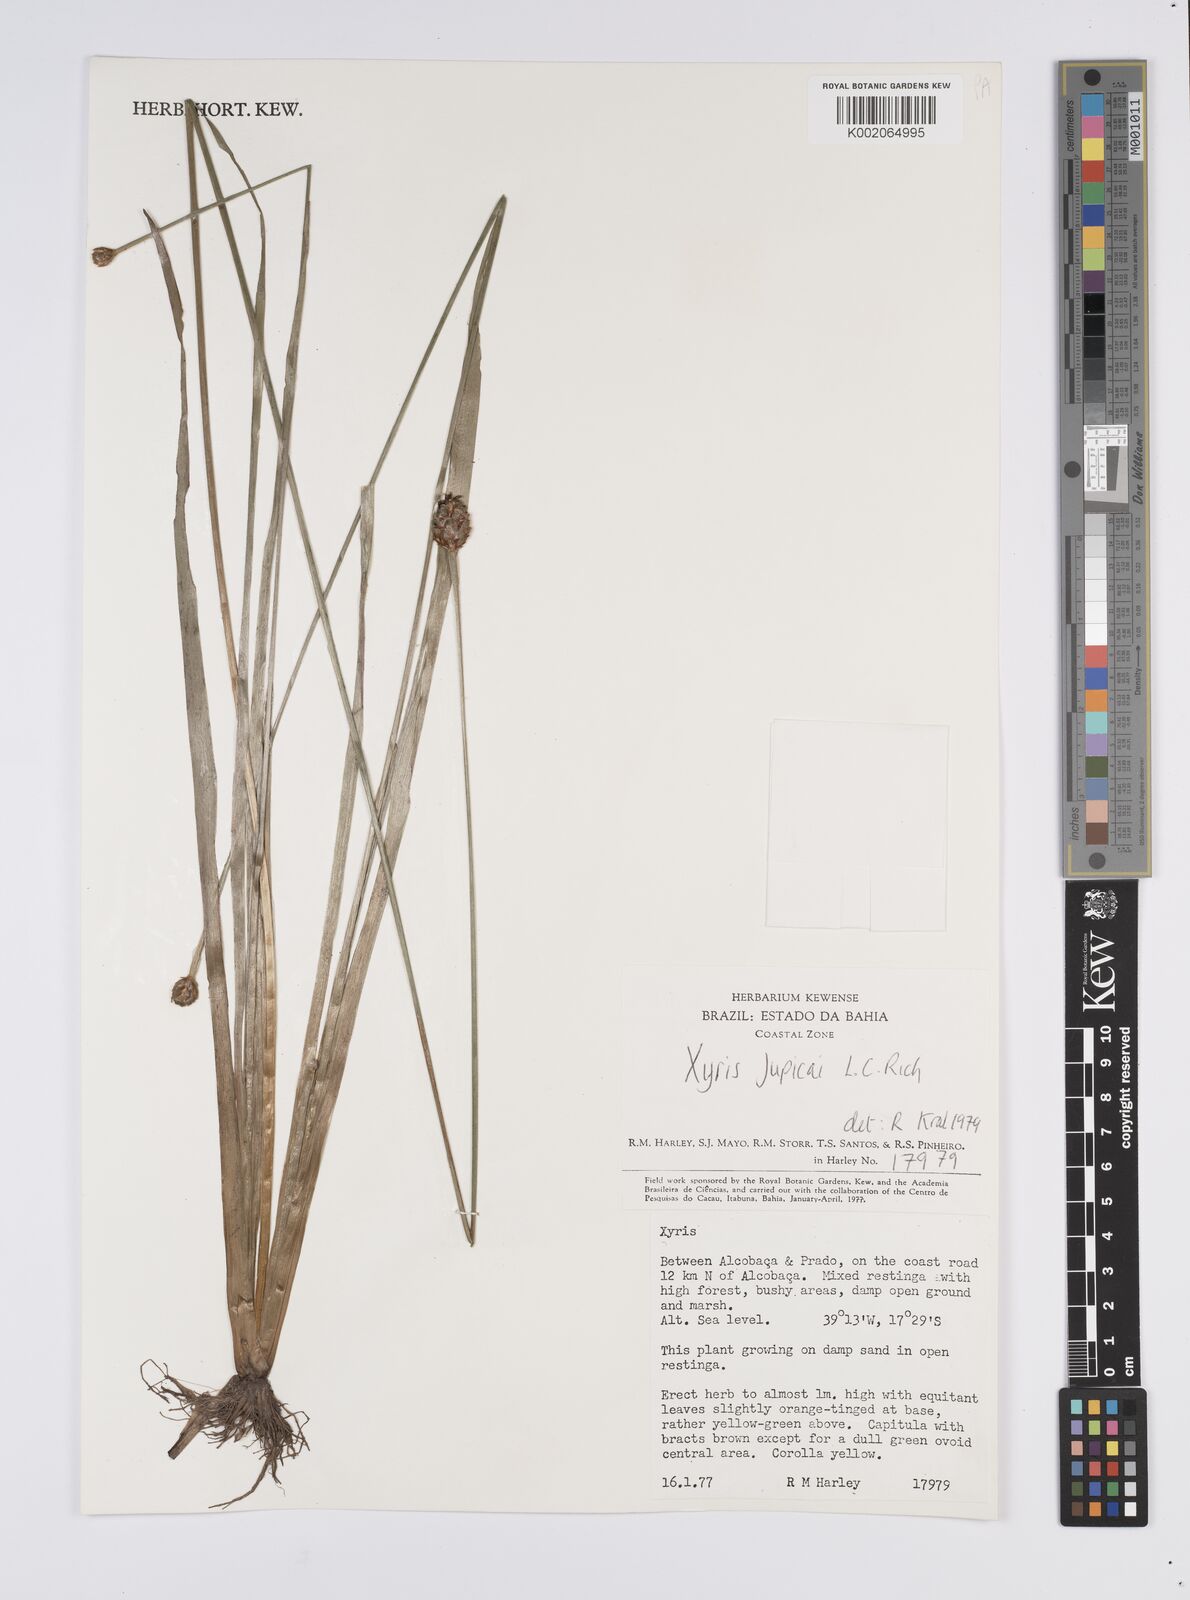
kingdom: Plantae
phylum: Tracheophyta
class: Liliopsida
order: Poales
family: Xyridaceae
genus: Xyris
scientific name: Xyris jupicai
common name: Richard's yelloweyed grass
